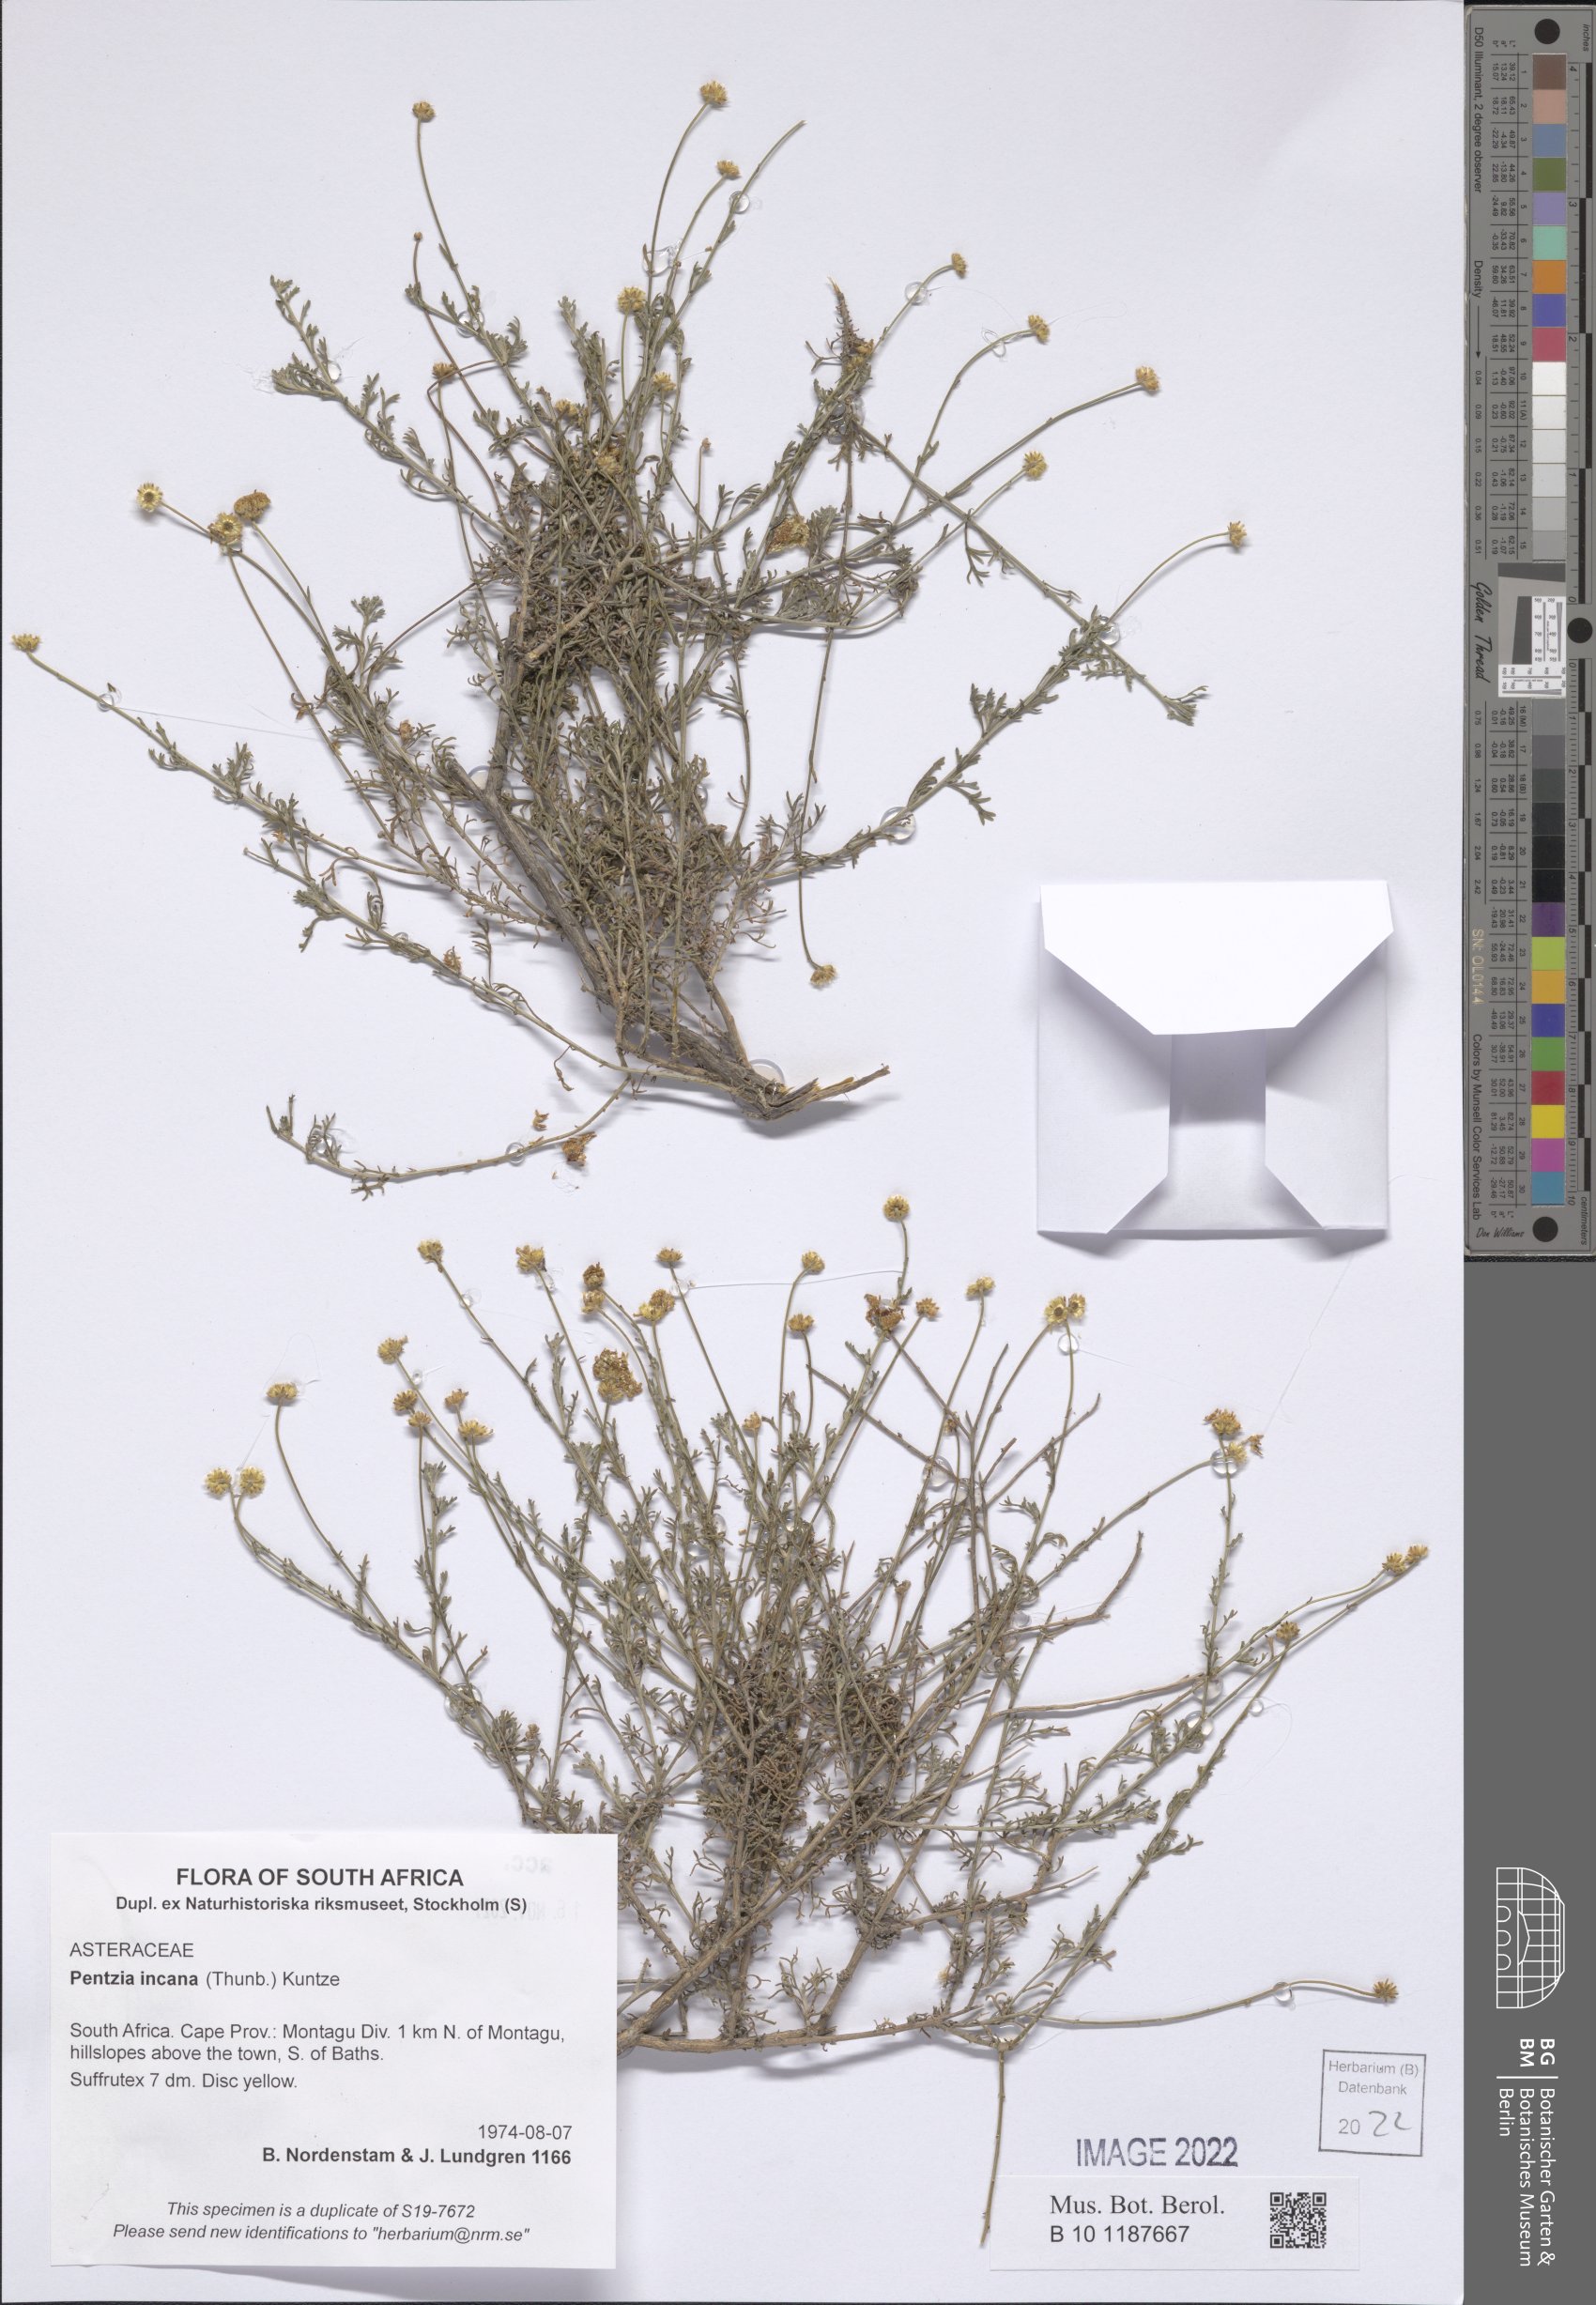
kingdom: Plantae
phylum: Tracheophyta
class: Magnoliopsida
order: Asterales
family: Asteraceae
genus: Pentzia
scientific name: Pentzia incana
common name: African sheepbush
